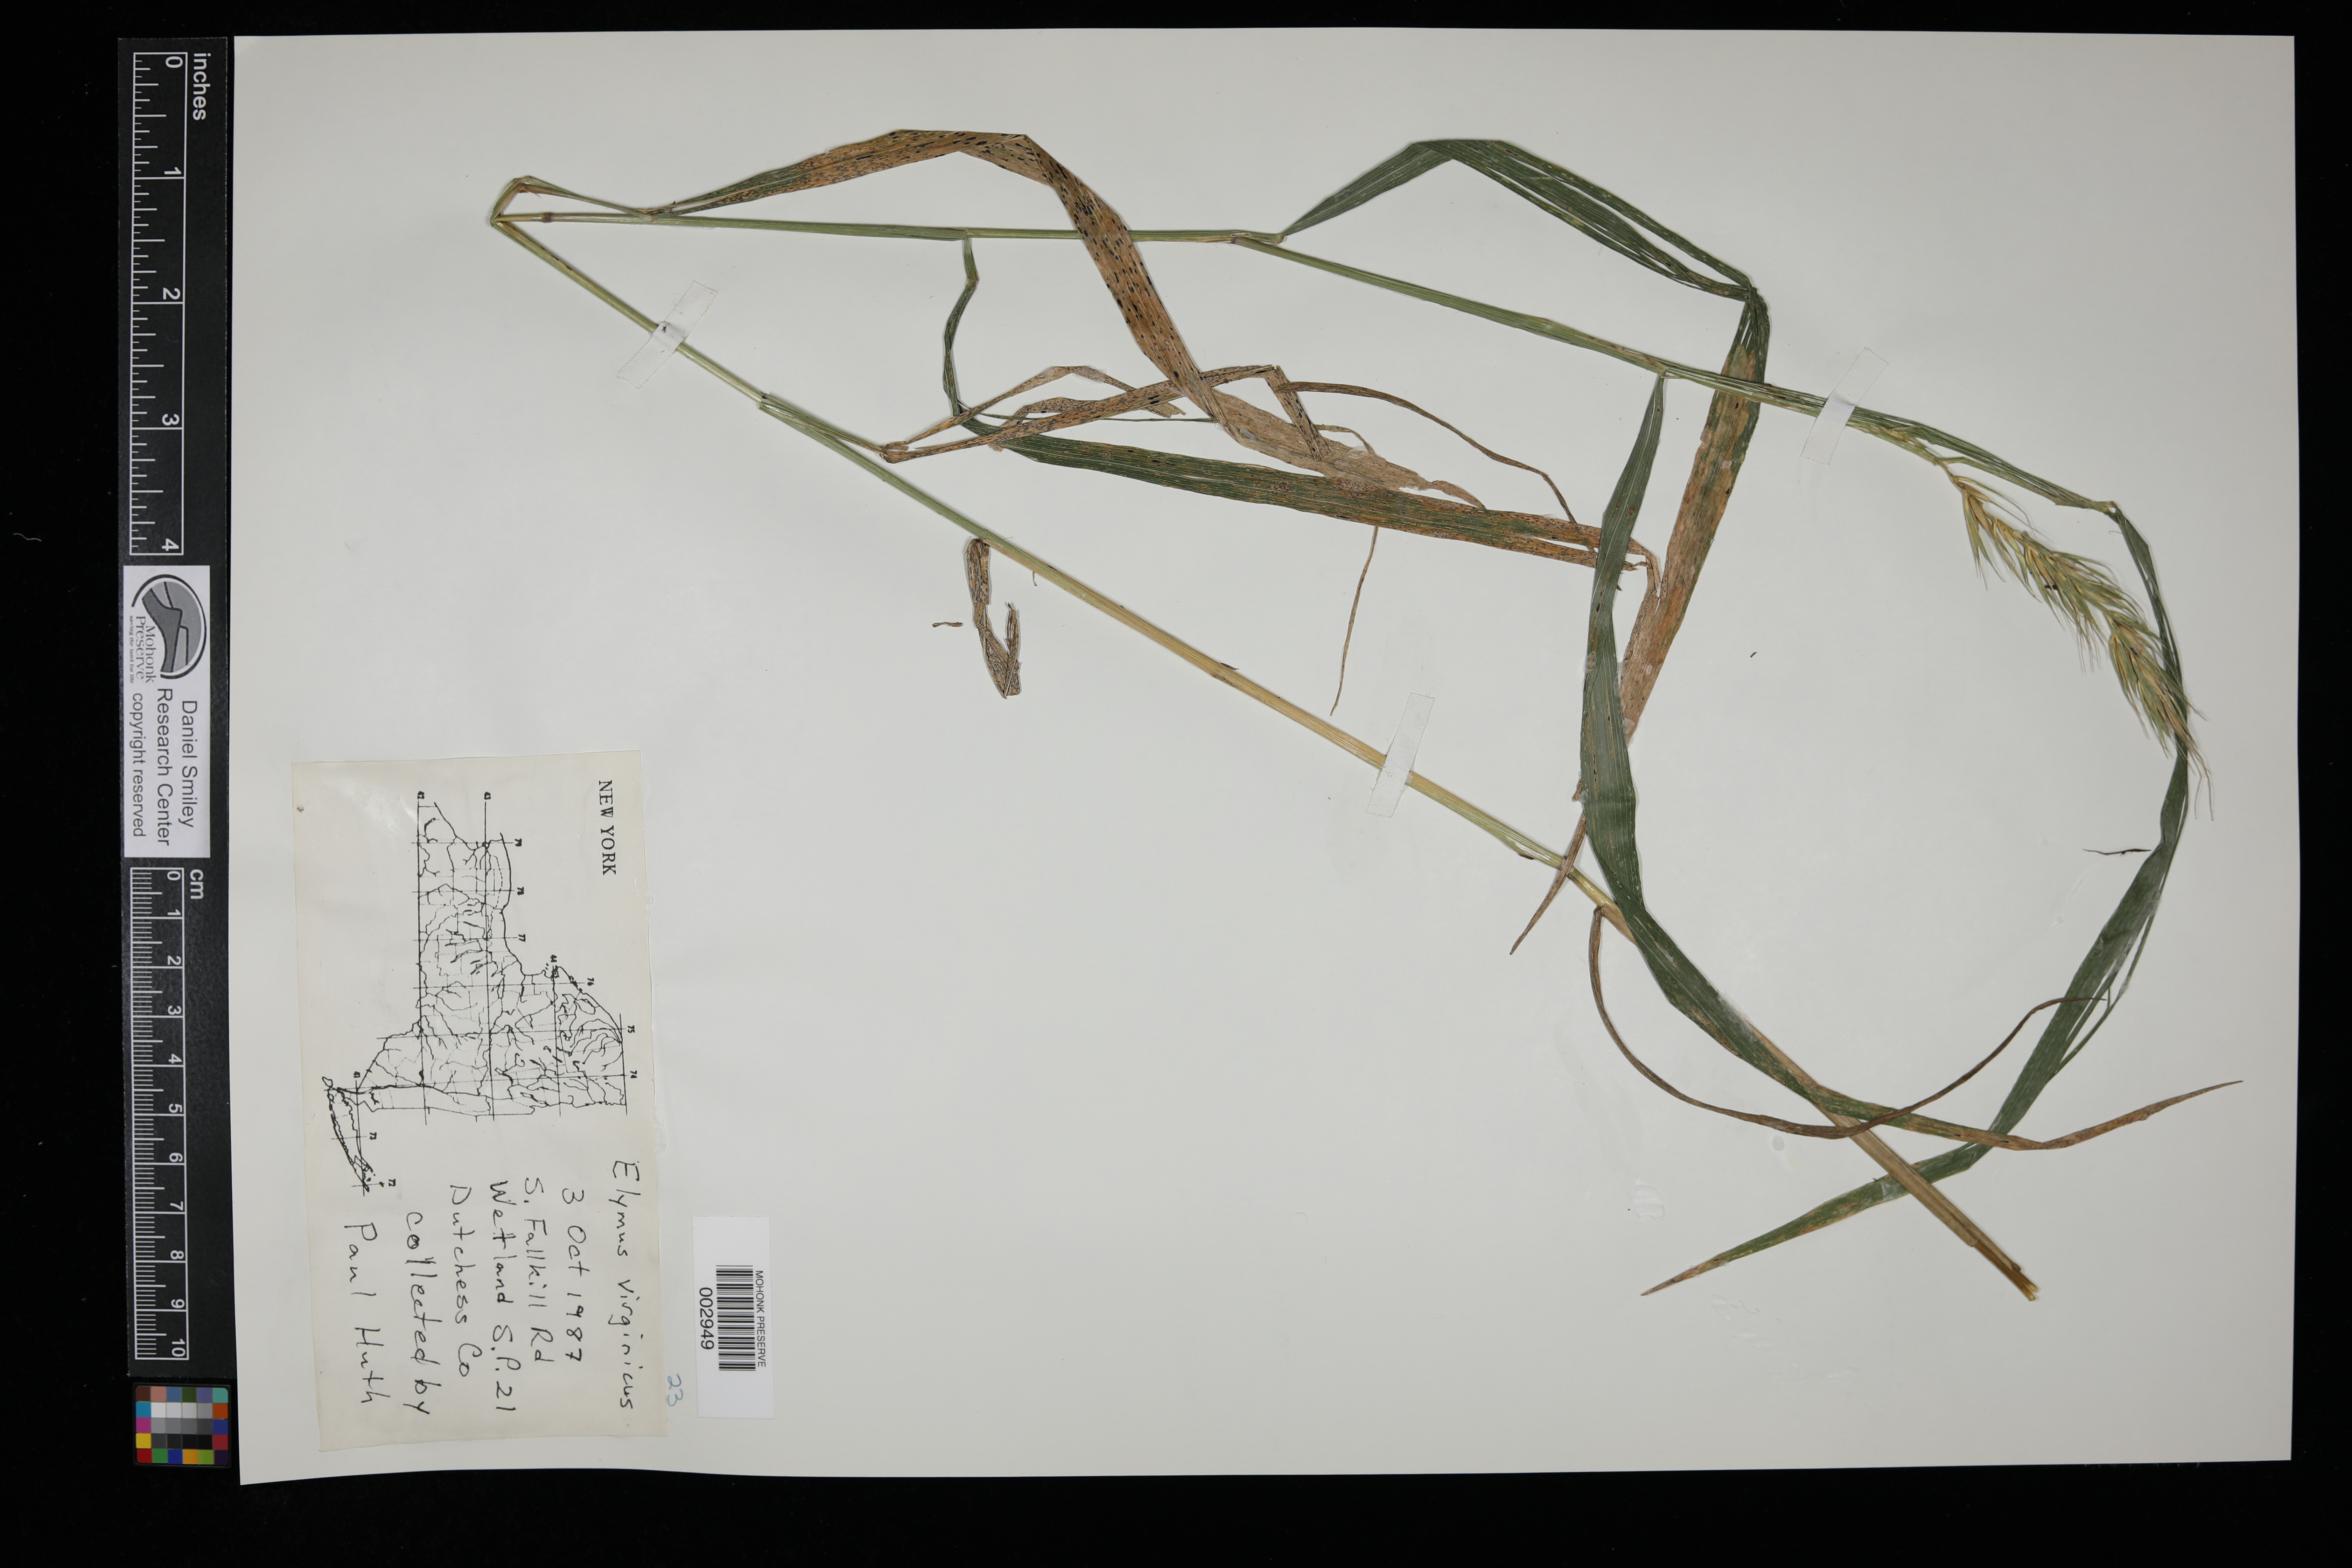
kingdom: Plantae
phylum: Tracheophyta
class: Liliopsida
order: Poales
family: Poaceae
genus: Elymus
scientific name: Elymus virginicus
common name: Common eastern wildrye
